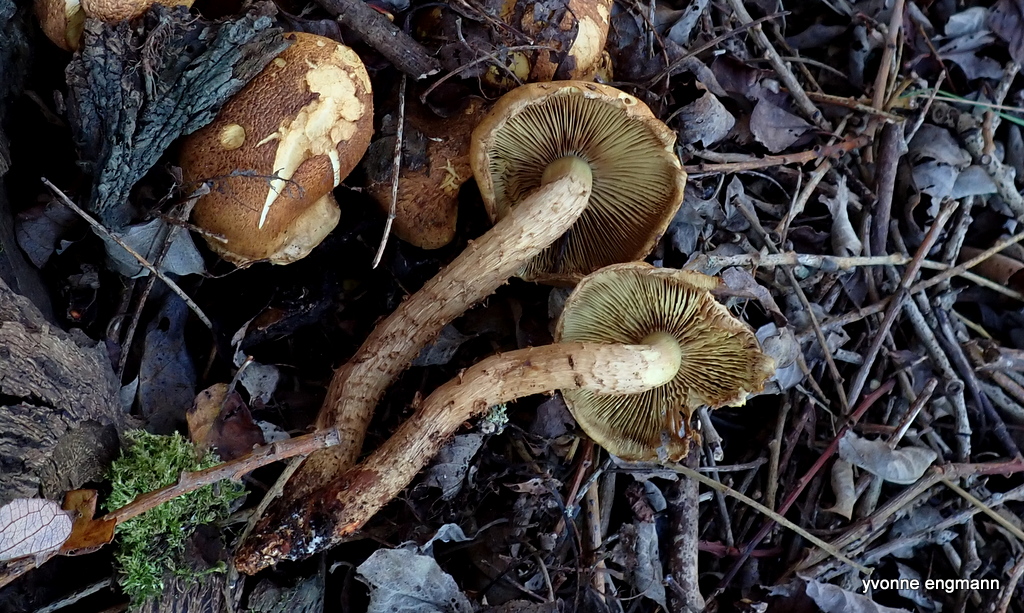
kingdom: Fungi
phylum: Basidiomycota
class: Agaricomycetes
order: Agaricales
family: Strophariaceae
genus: Pholiota
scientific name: Pholiota squarrosa
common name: krumskællet skælhat
